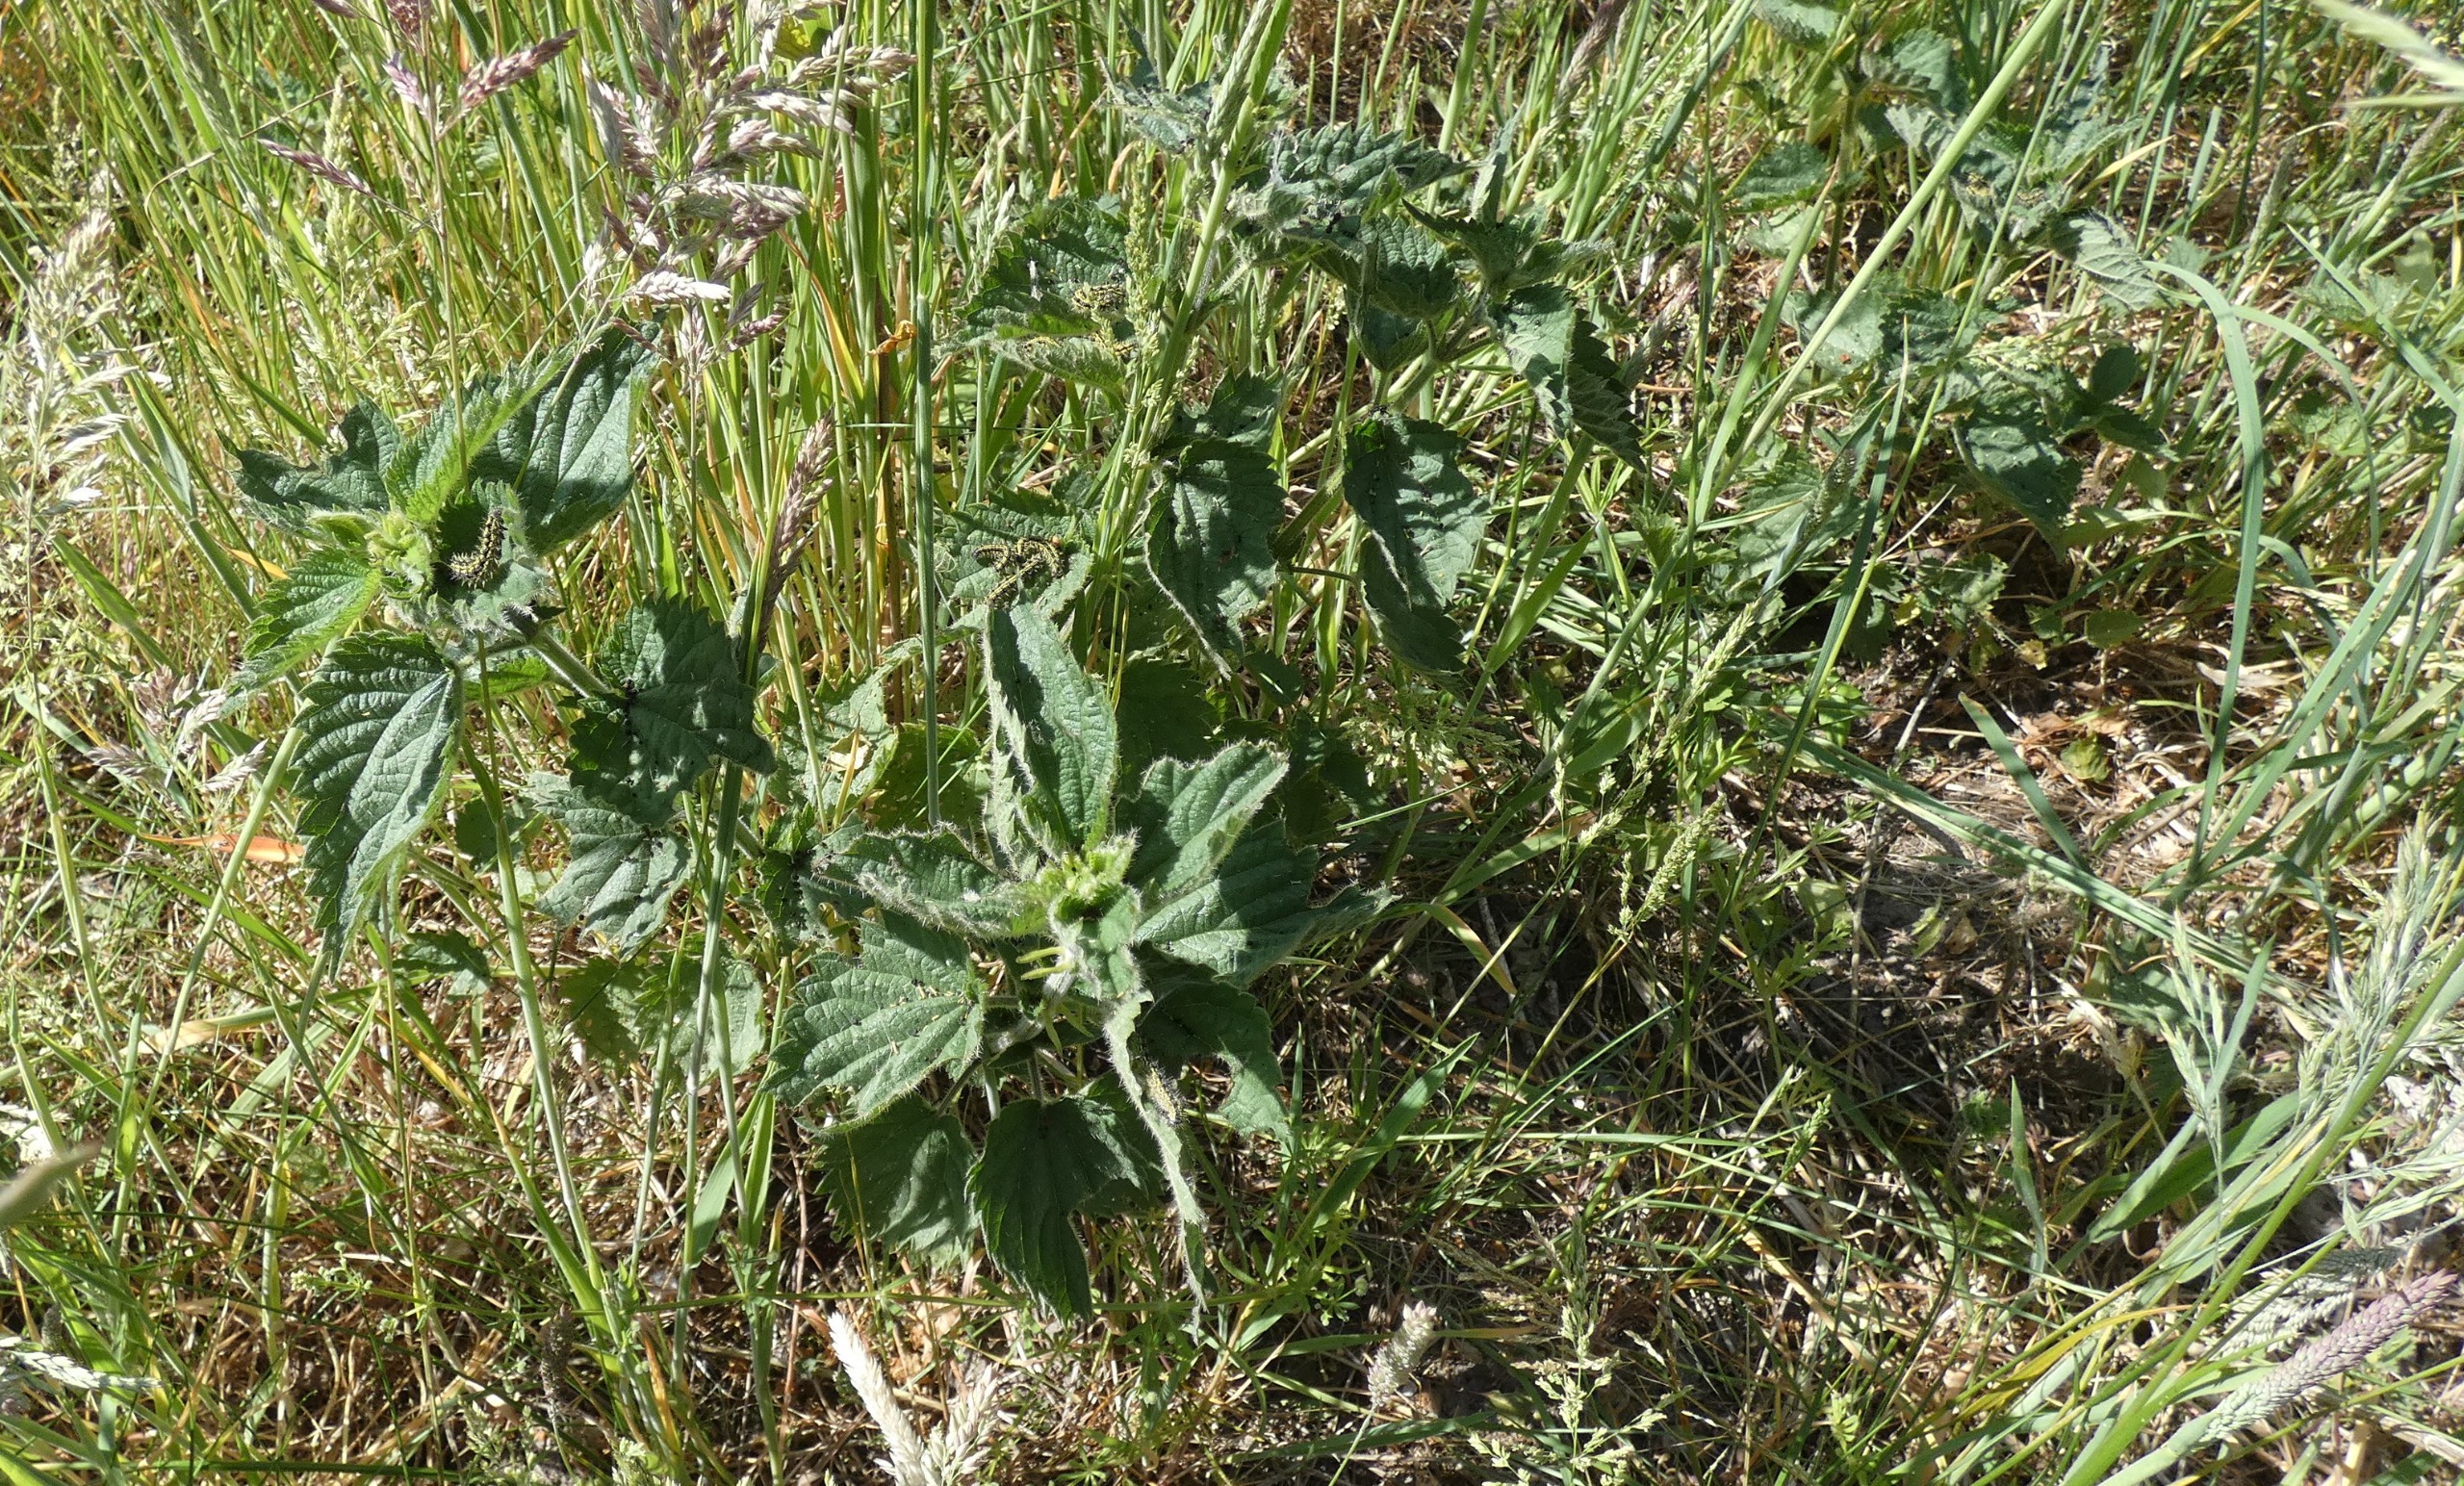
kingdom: Plantae
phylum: Tracheophyta
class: Magnoliopsida
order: Rosales
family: Urticaceae
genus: Urtica
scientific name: Urtica dioica
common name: Stor nælde
